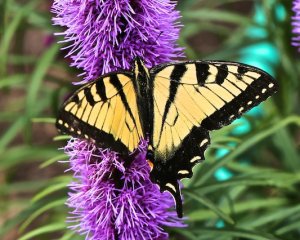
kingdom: Animalia
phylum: Arthropoda
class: Insecta
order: Lepidoptera
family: Papilionidae
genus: Pterourus
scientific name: Pterourus canadensis
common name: Canadian Tiger Swallowtail
